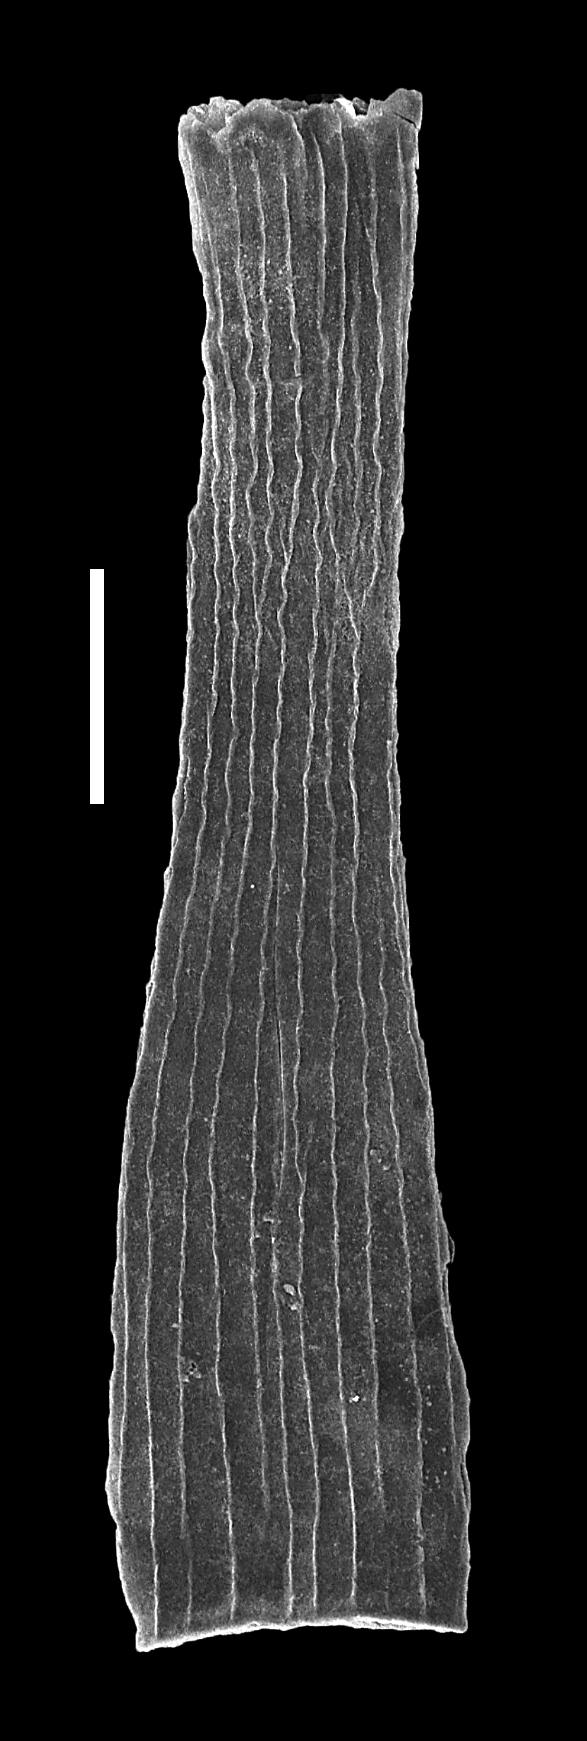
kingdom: Animalia
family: Conochitinidae
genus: Laufeldochitina
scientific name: Laufeldochitina
